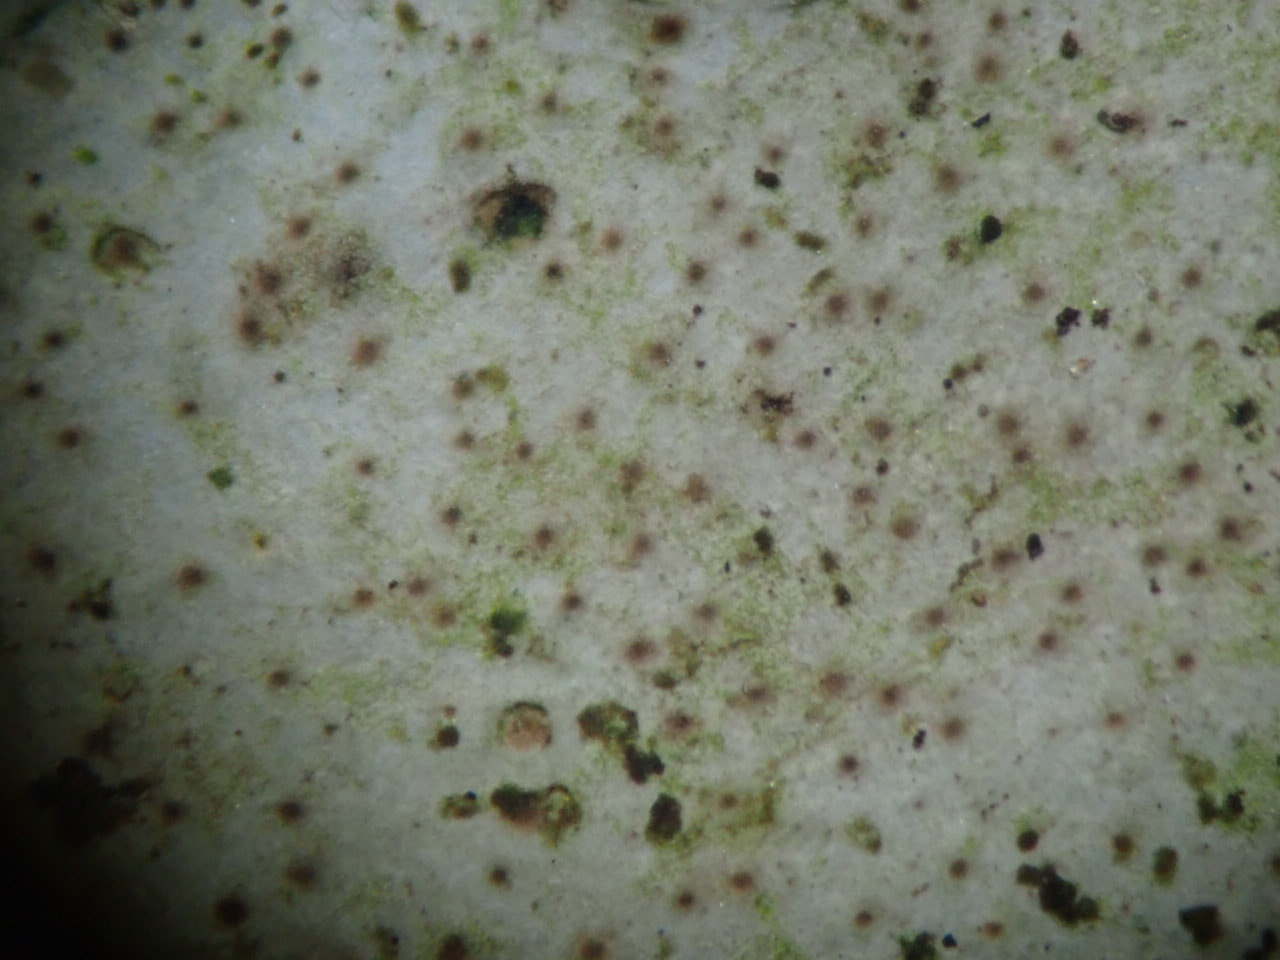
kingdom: Fungi
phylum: Ascomycota
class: Eurotiomycetes
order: Verrucariales
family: Verrucariaceae
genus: Dermatocarpon
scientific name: Dermatocarpon miniatum
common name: klippe-prikbladlav
